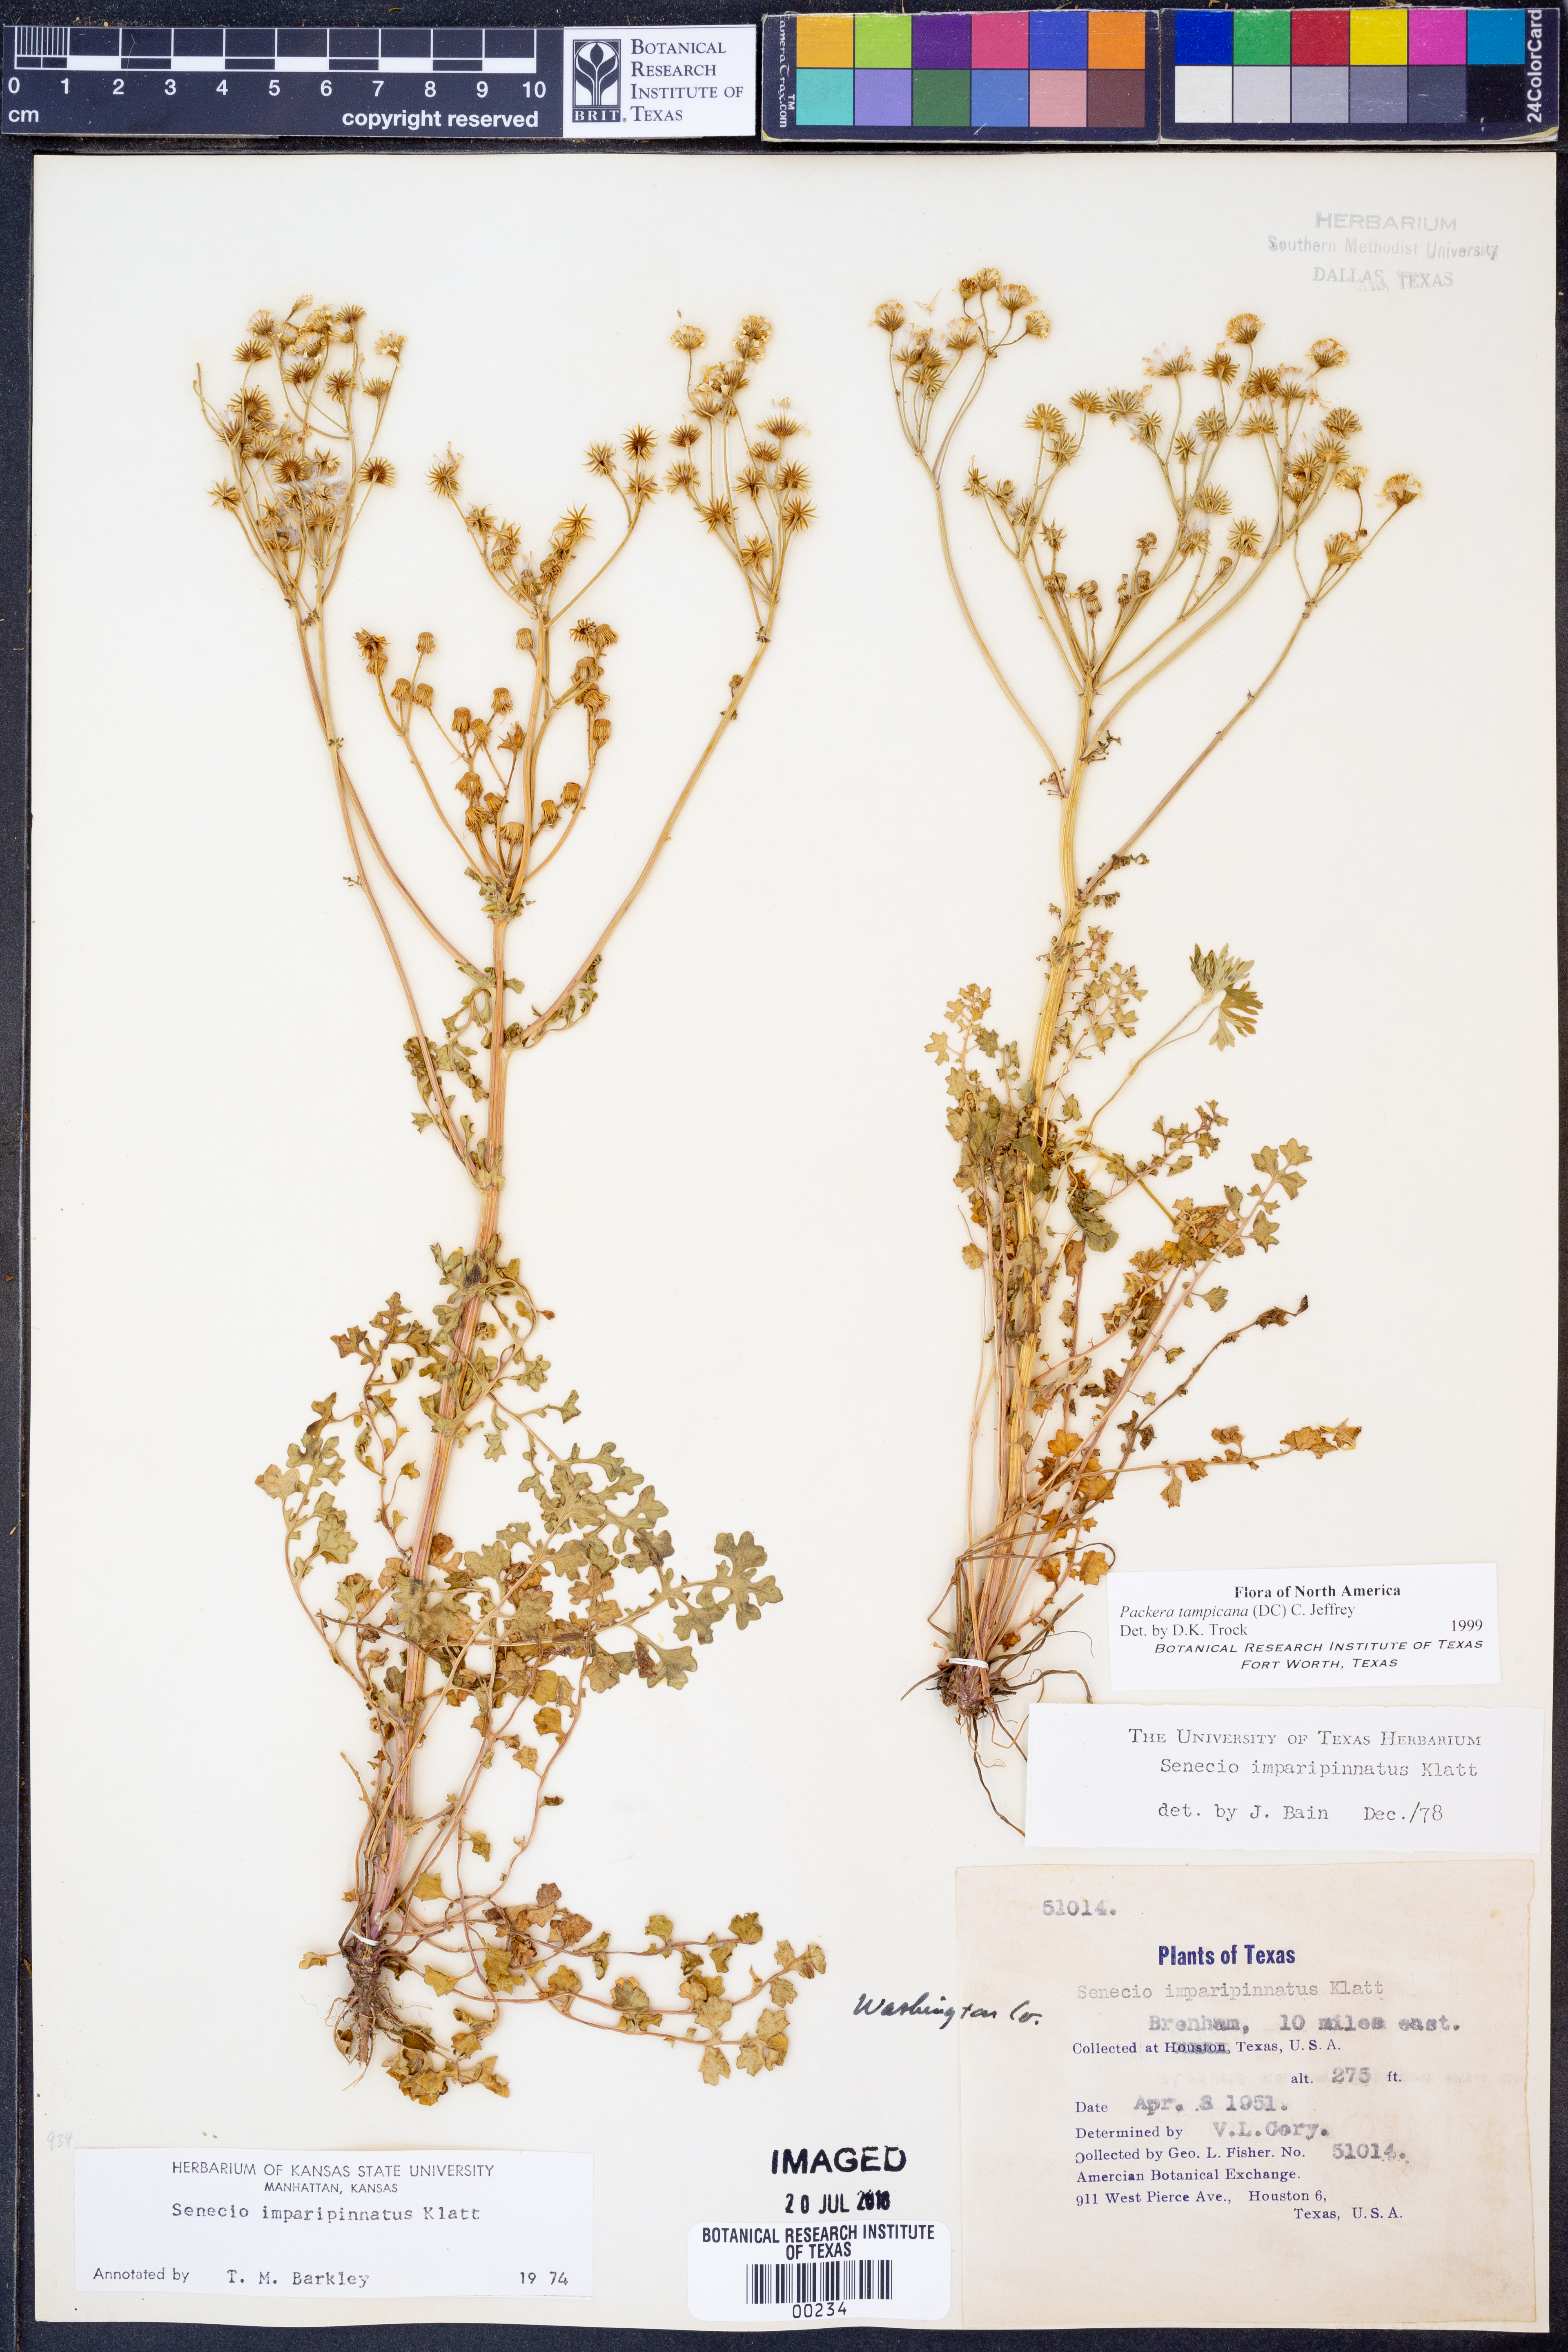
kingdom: Plantae
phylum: Tracheophyta
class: Magnoliopsida
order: Asterales
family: Asteraceae
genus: Packera
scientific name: Packera tampicana
